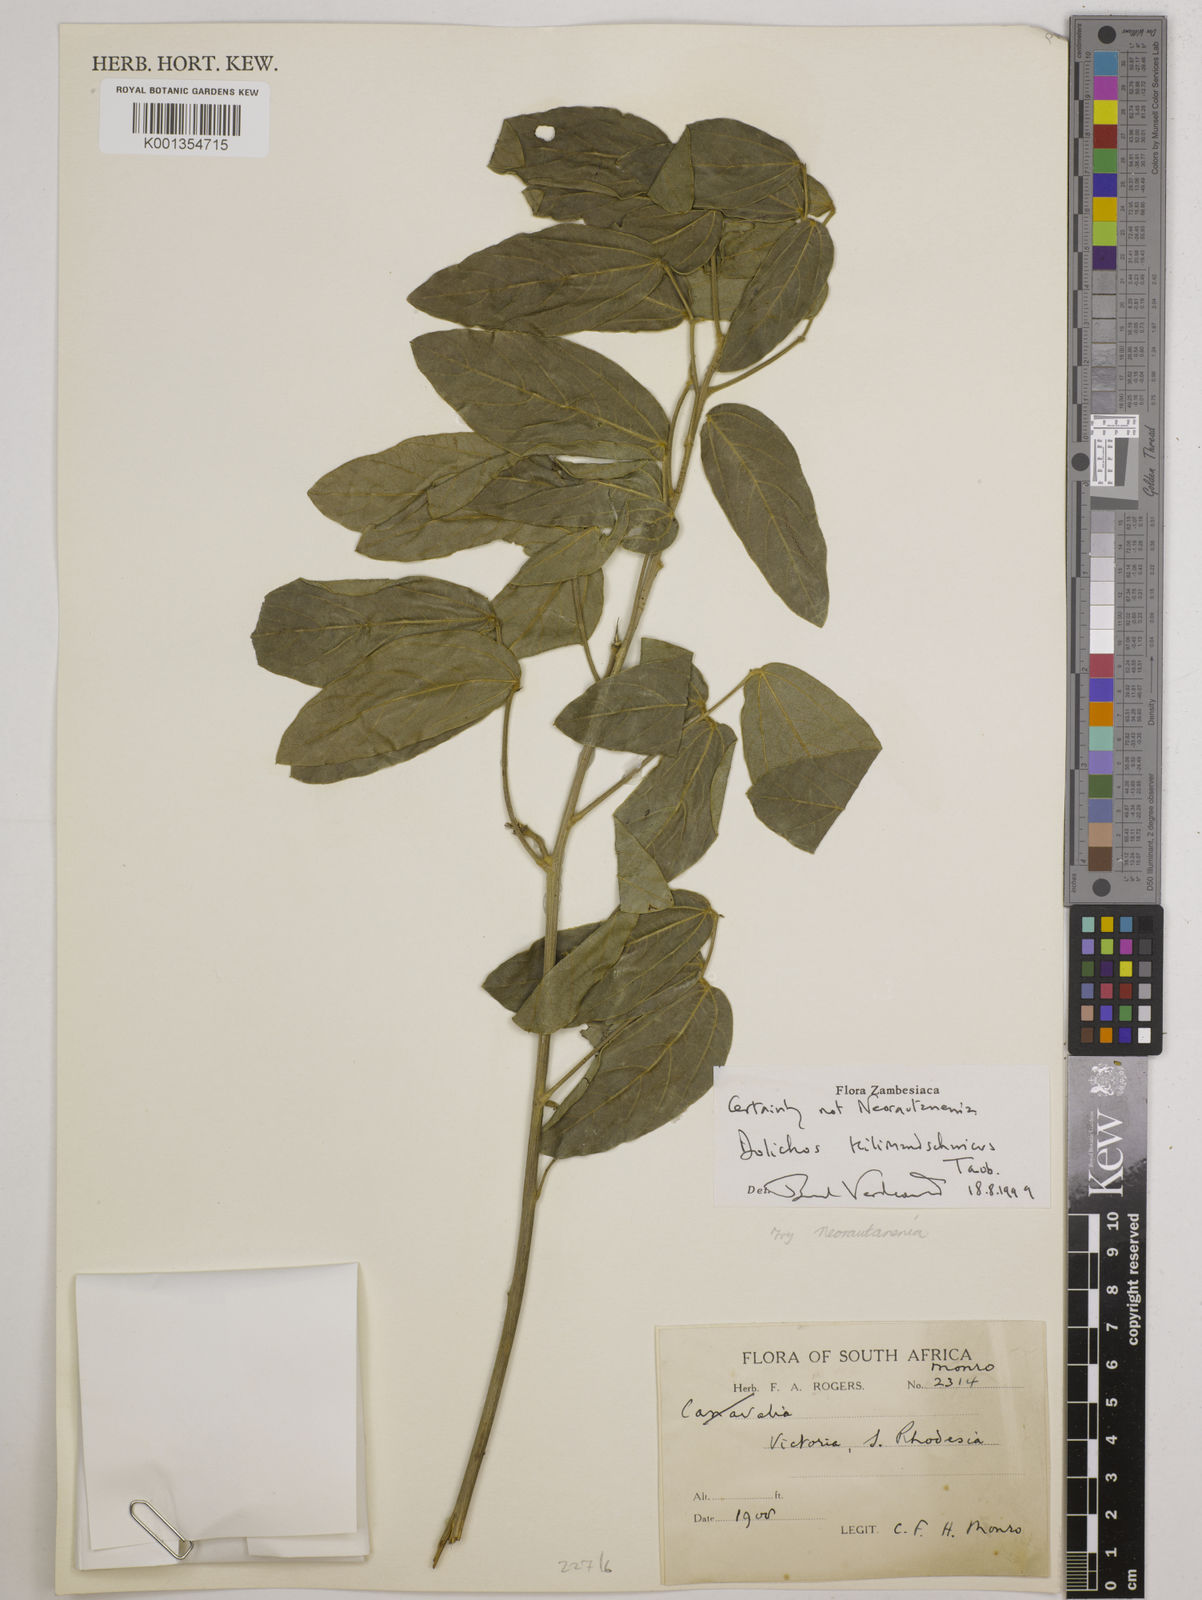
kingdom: Plantae
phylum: Tracheophyta
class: Magnoliopsida
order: Fabales
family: Fabaceae
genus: Dolichos
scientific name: Dolichos kilimandscharicus
